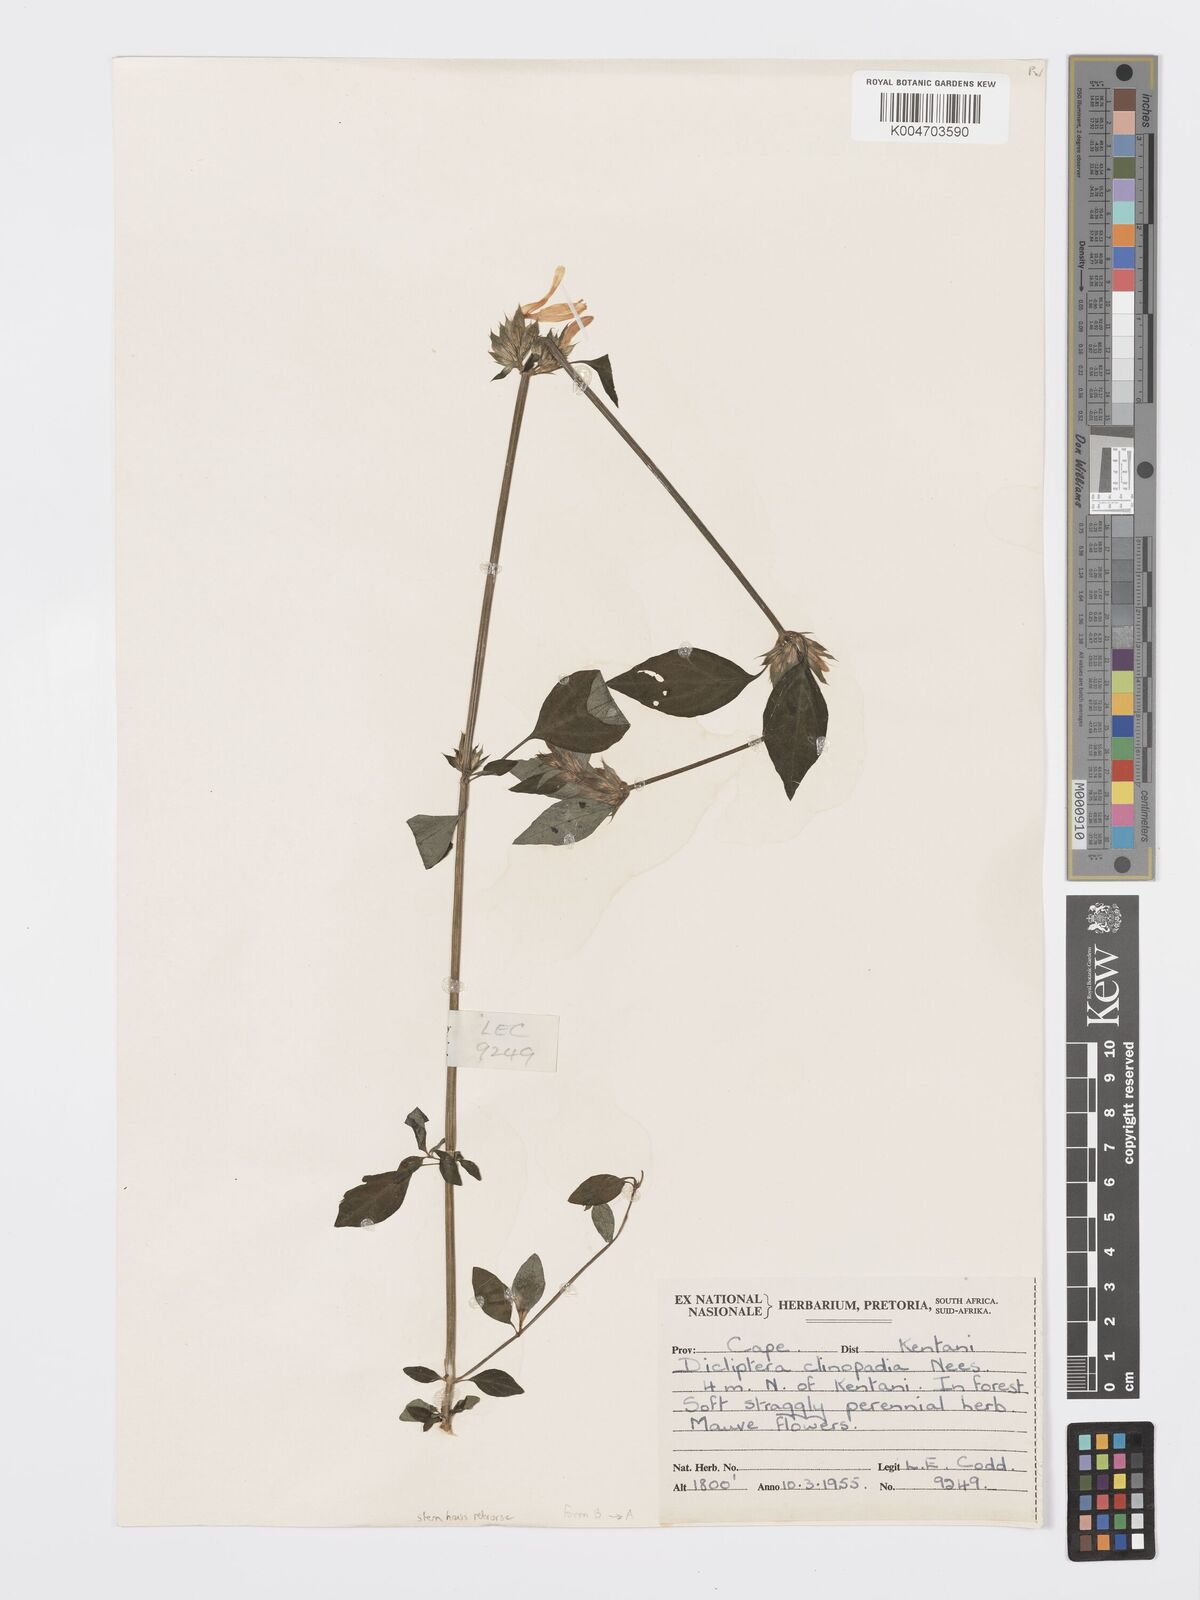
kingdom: Plantae
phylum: Tracheophyta
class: Magnoliopsida
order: Lamiales
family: Acanthaceae
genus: Dicliptera
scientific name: Dicliptera clinopodia
